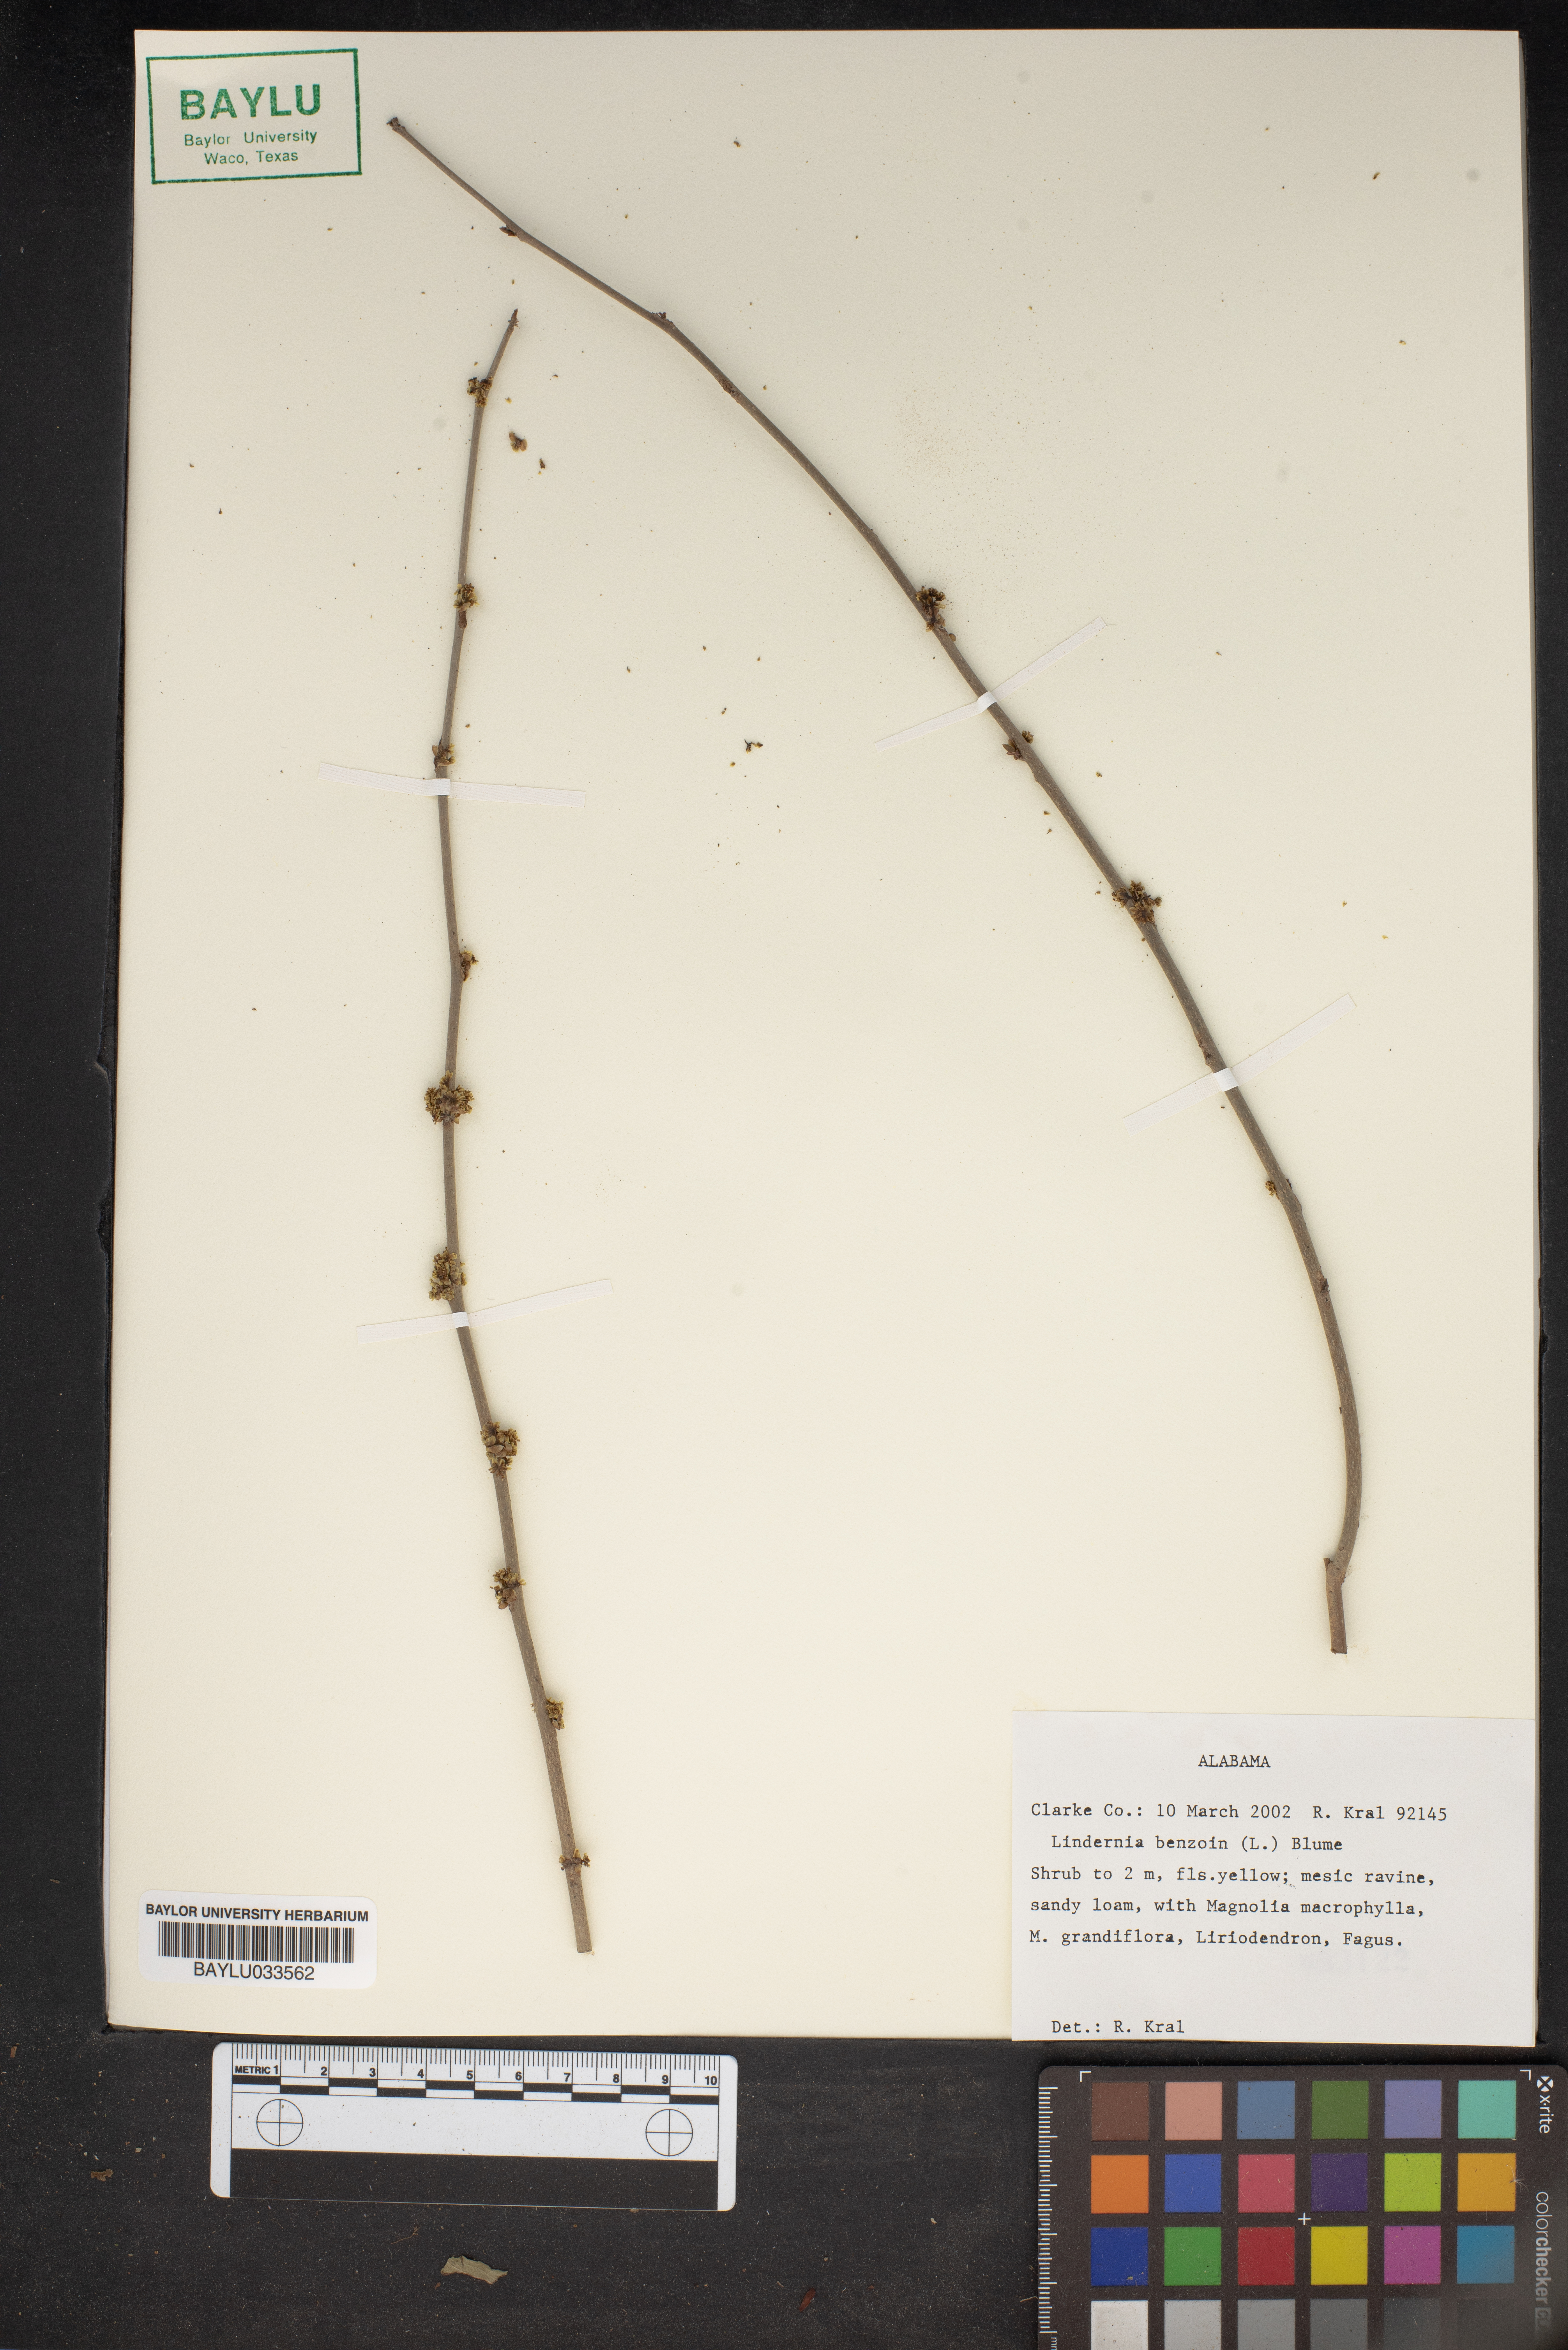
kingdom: Plantae
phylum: Tracheophyta
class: Magnoliopsida
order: Laurales
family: Lauraceae
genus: Lindera
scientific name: Lindera benzoin
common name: Spicebush
